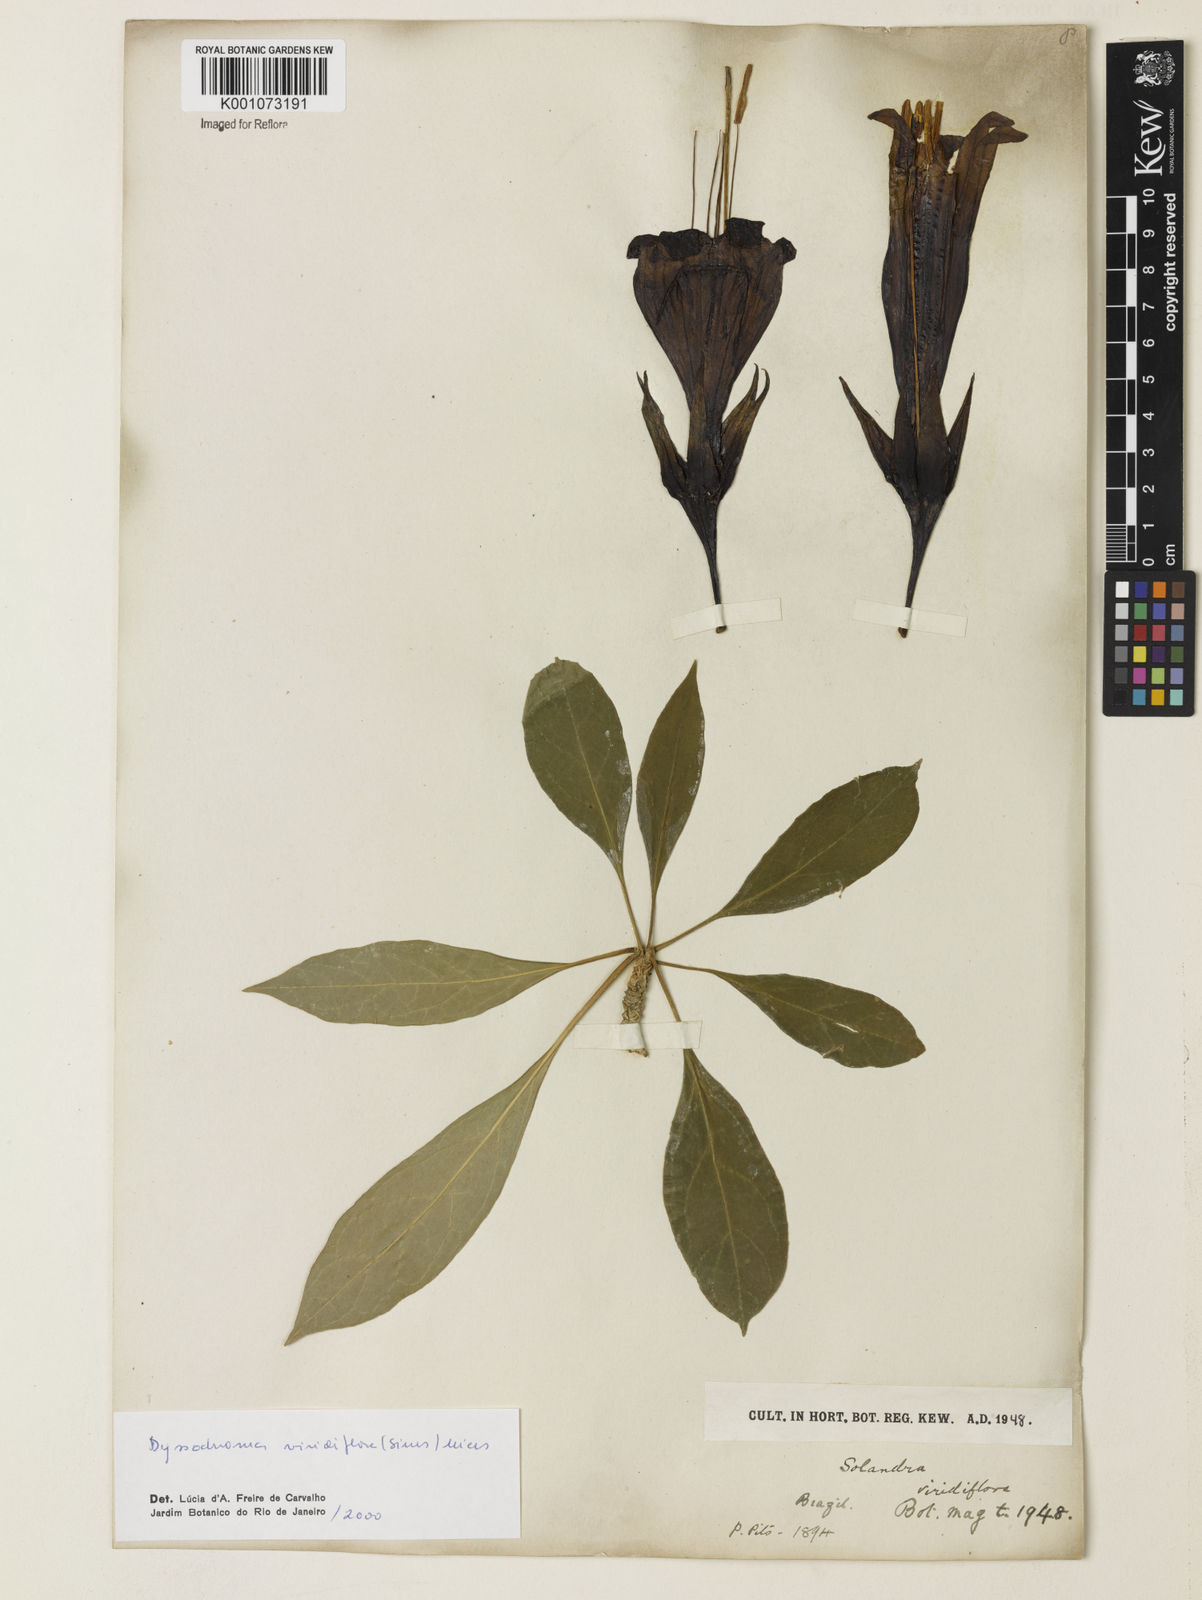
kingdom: Plantae
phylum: Tracheophyta
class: Magnoliopsida
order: Solanales
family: Solanaceae
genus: Dyssochroma
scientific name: Dyssochroma longipes
